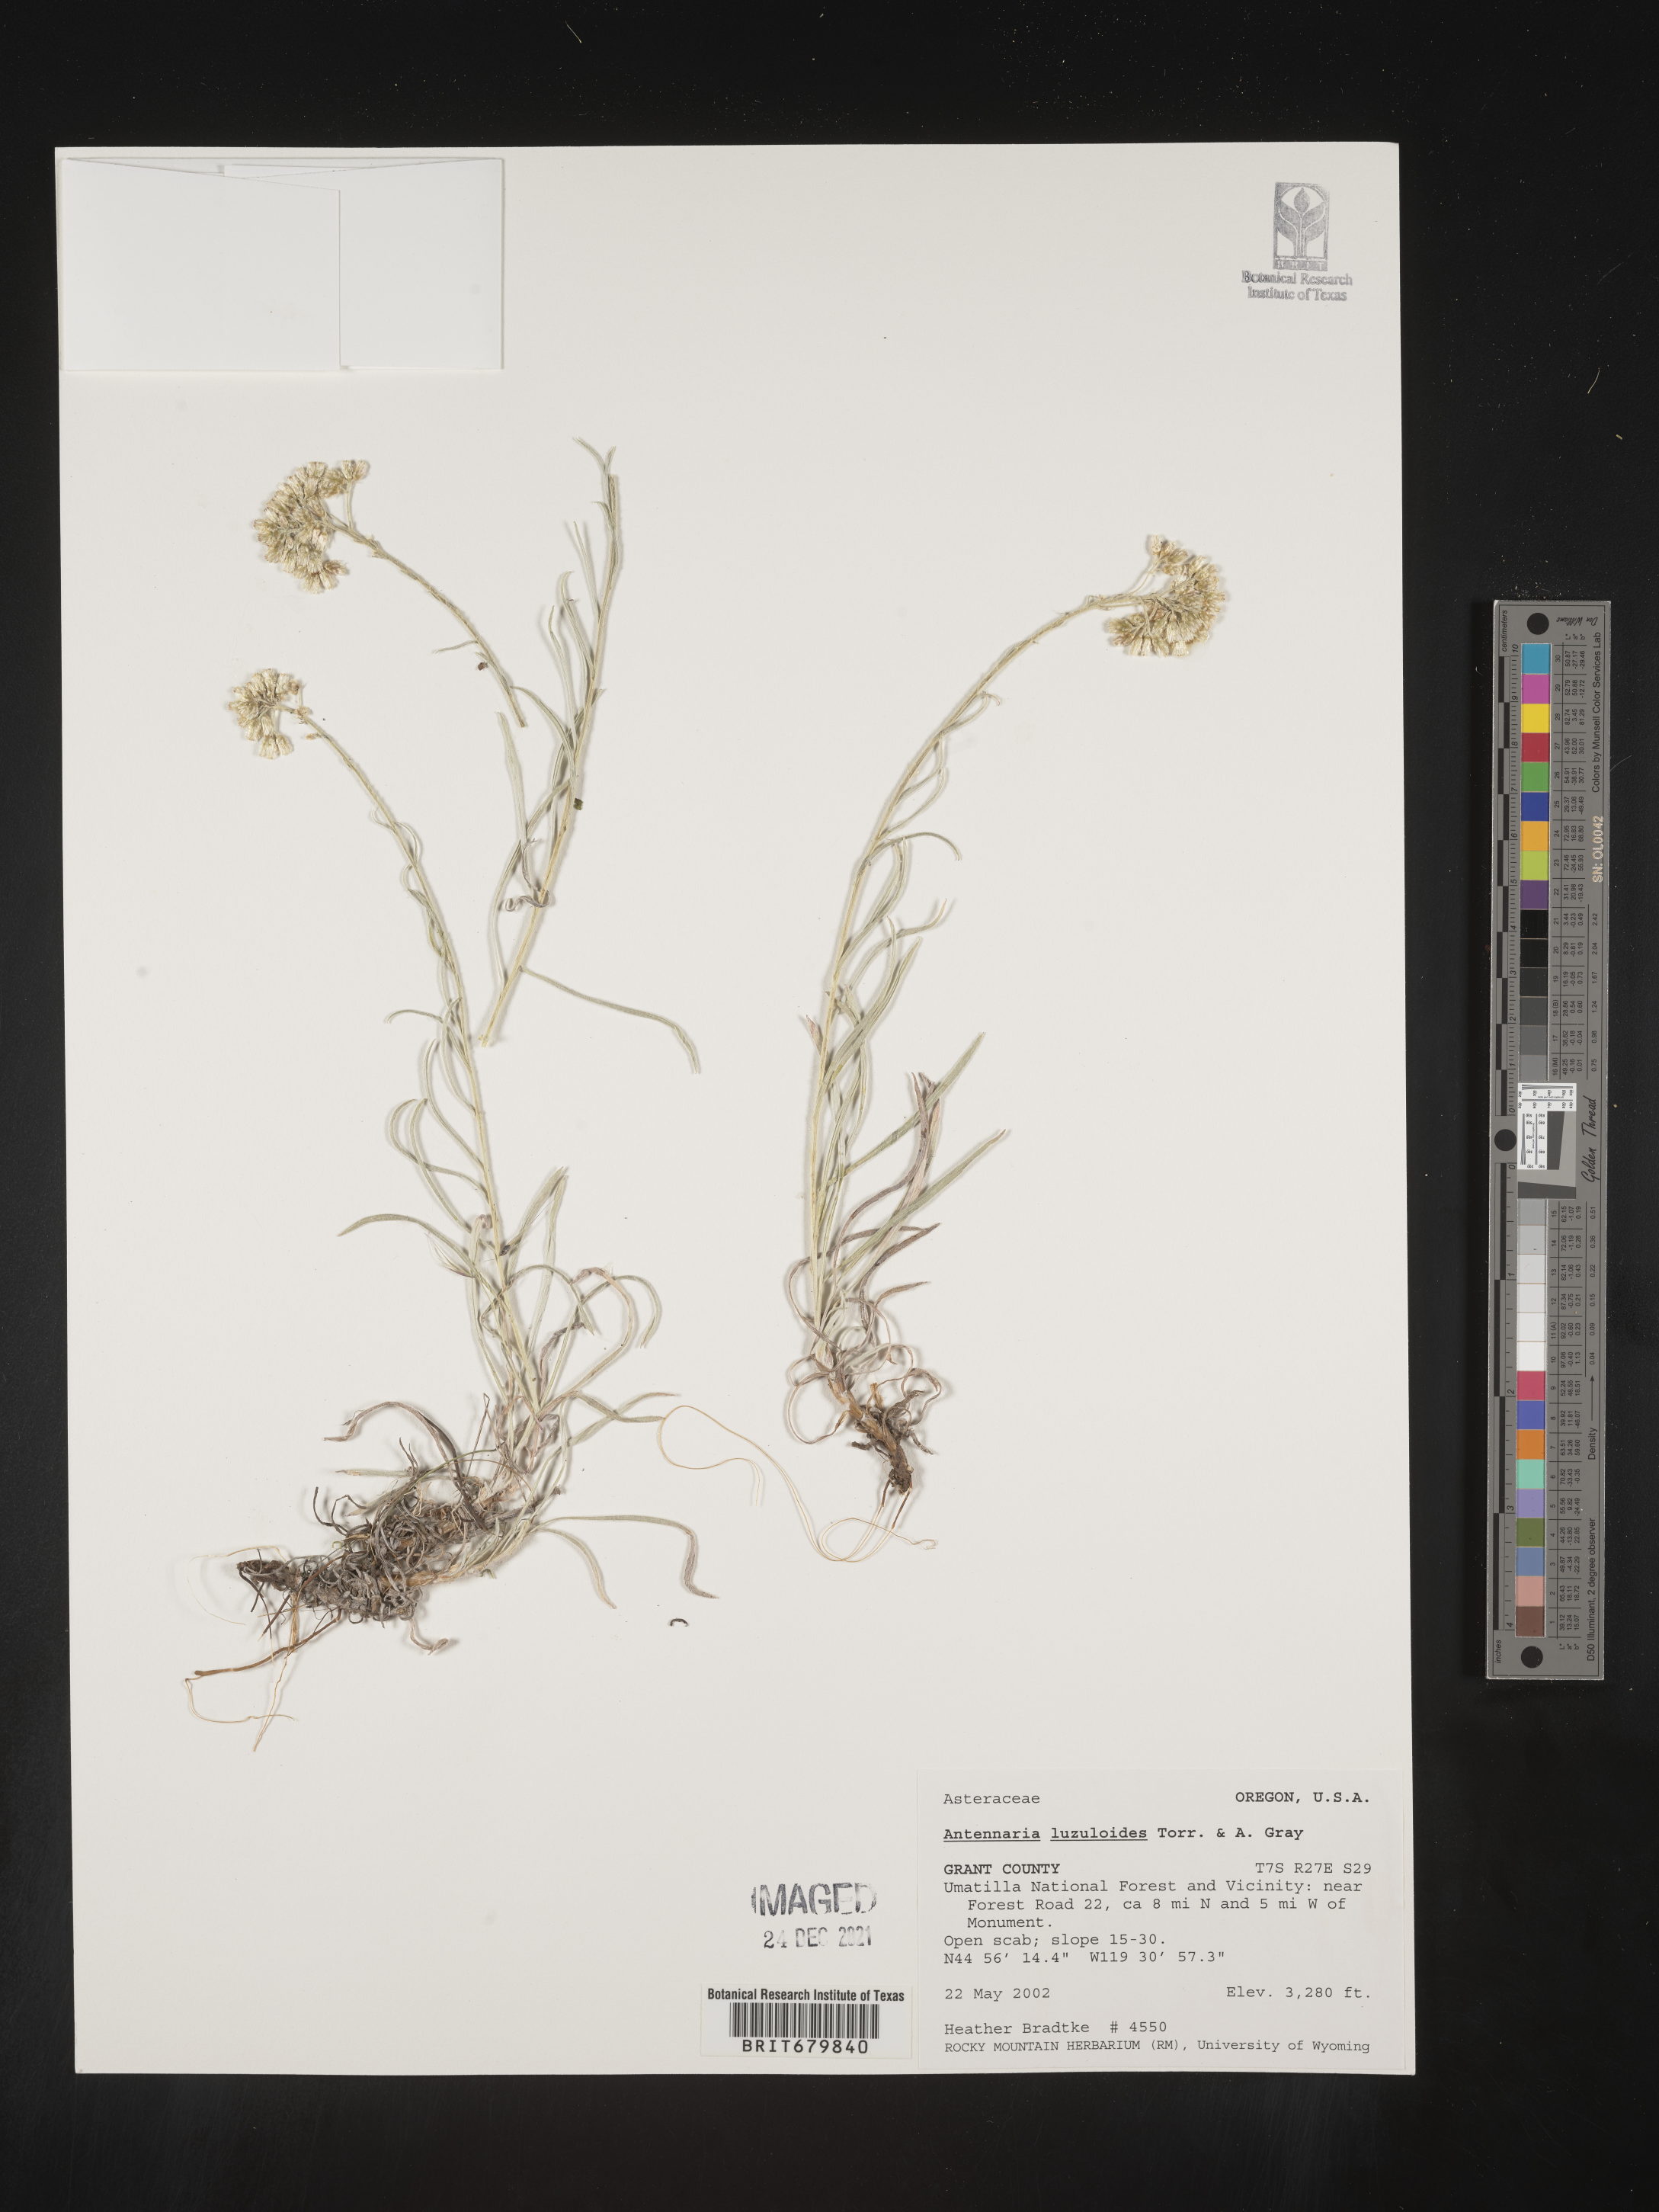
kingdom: Plantae
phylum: Tracheophyta
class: Magnoliopsida
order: Asterales
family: Asteraceae
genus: Antennaria
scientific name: Antennaria luzuloides
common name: Rush pussytoes
